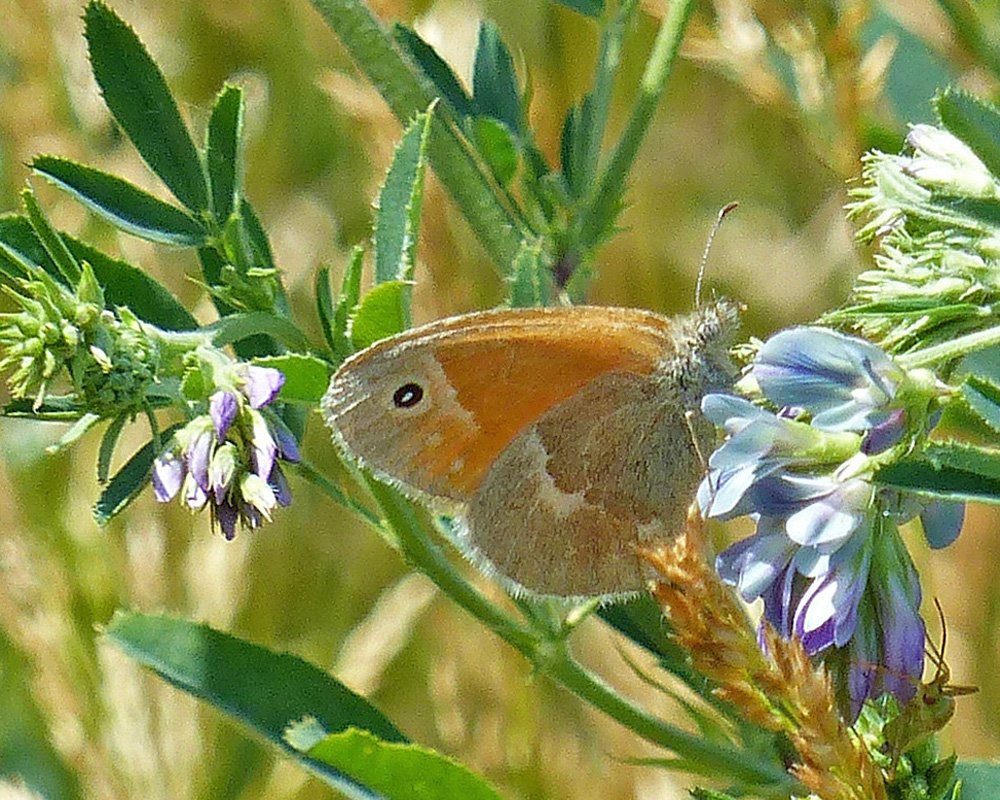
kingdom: Animalia
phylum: Arthropoda
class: Insecta
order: Lepidoptera
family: Nymphalidae
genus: Coenonympha
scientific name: Coenonympha tullia
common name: Large Heath
